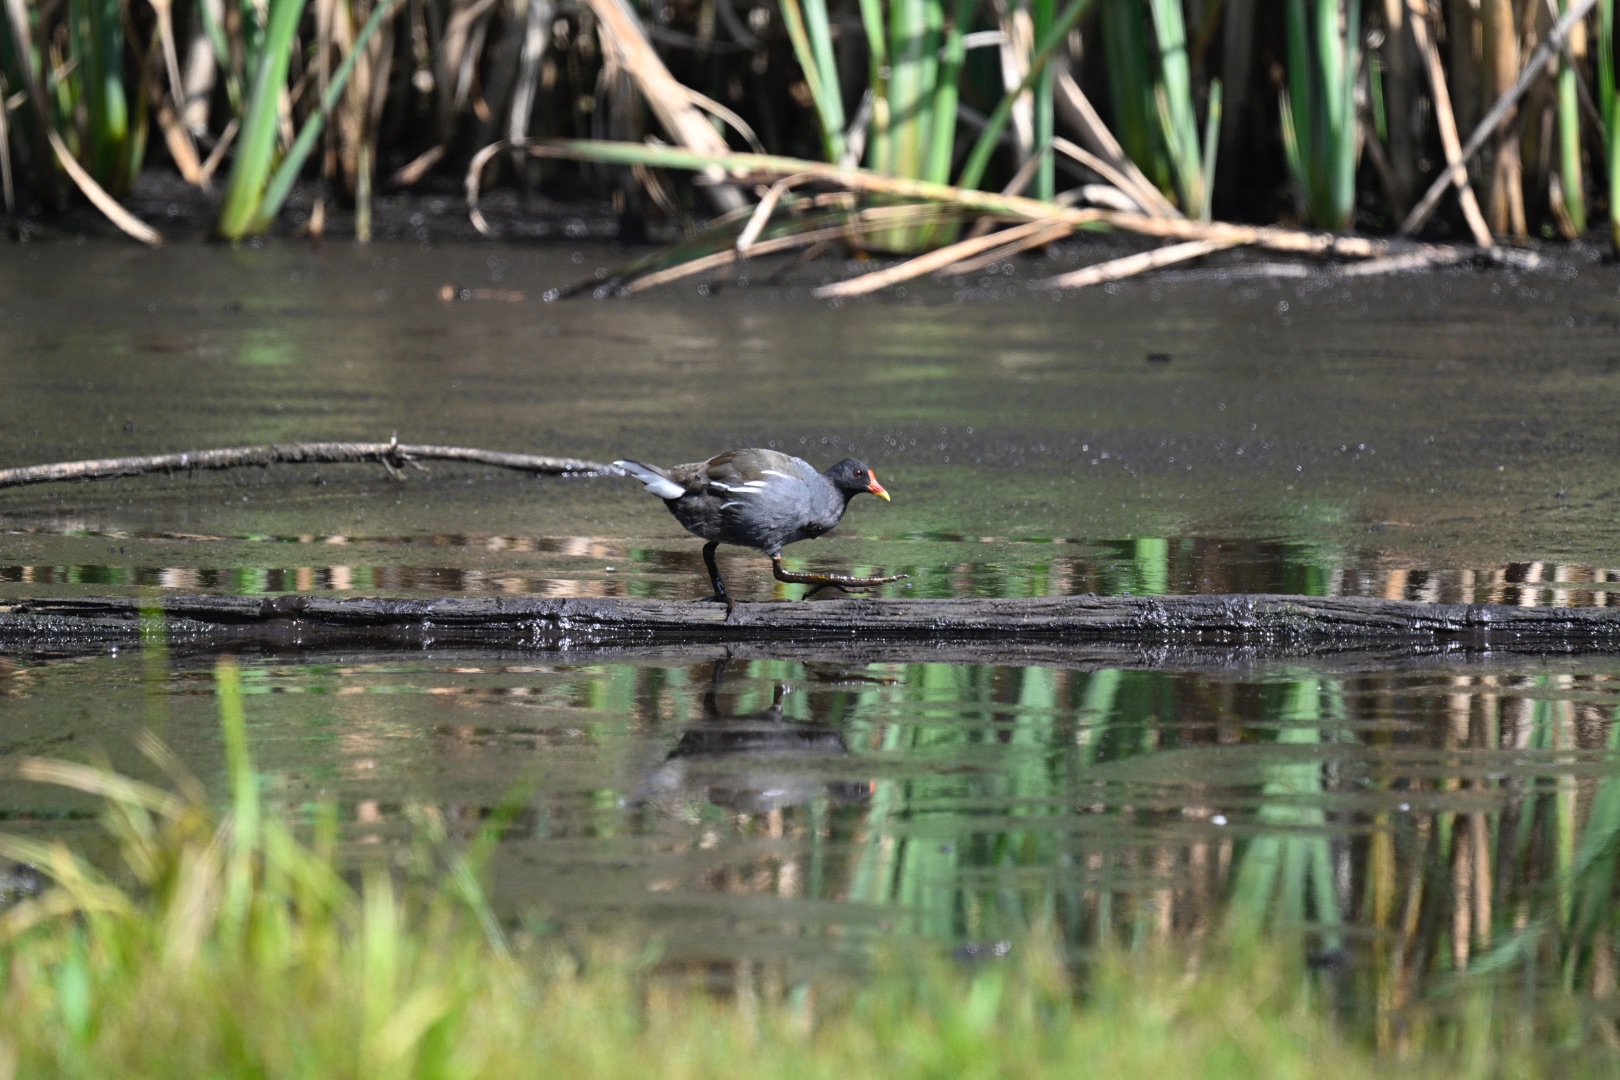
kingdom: Animalia
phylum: Chordata
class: Aves
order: Gruiformes
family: Rallidae
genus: Gallinula
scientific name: Gallinula chloropus
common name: Grønbenet rørhøne
